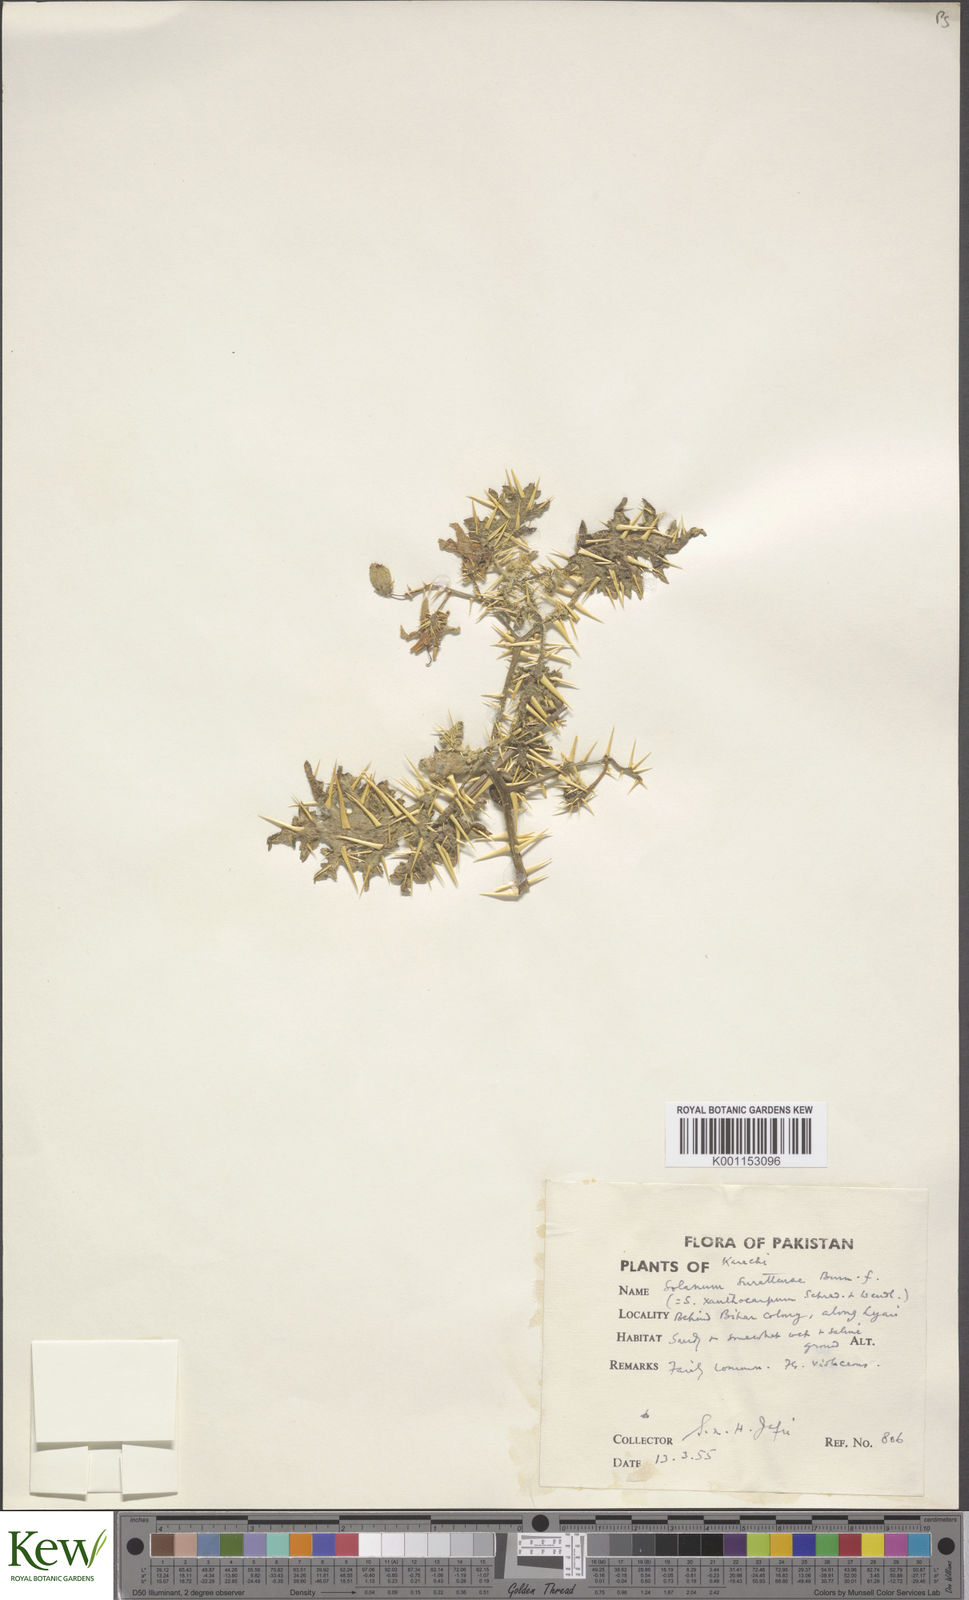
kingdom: Plantae
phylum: Tracheophyta
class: Magnoliopsida
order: Solanales
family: Solanaceae
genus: Solanum
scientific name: Solanum virginianum
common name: Surattense nightshade
